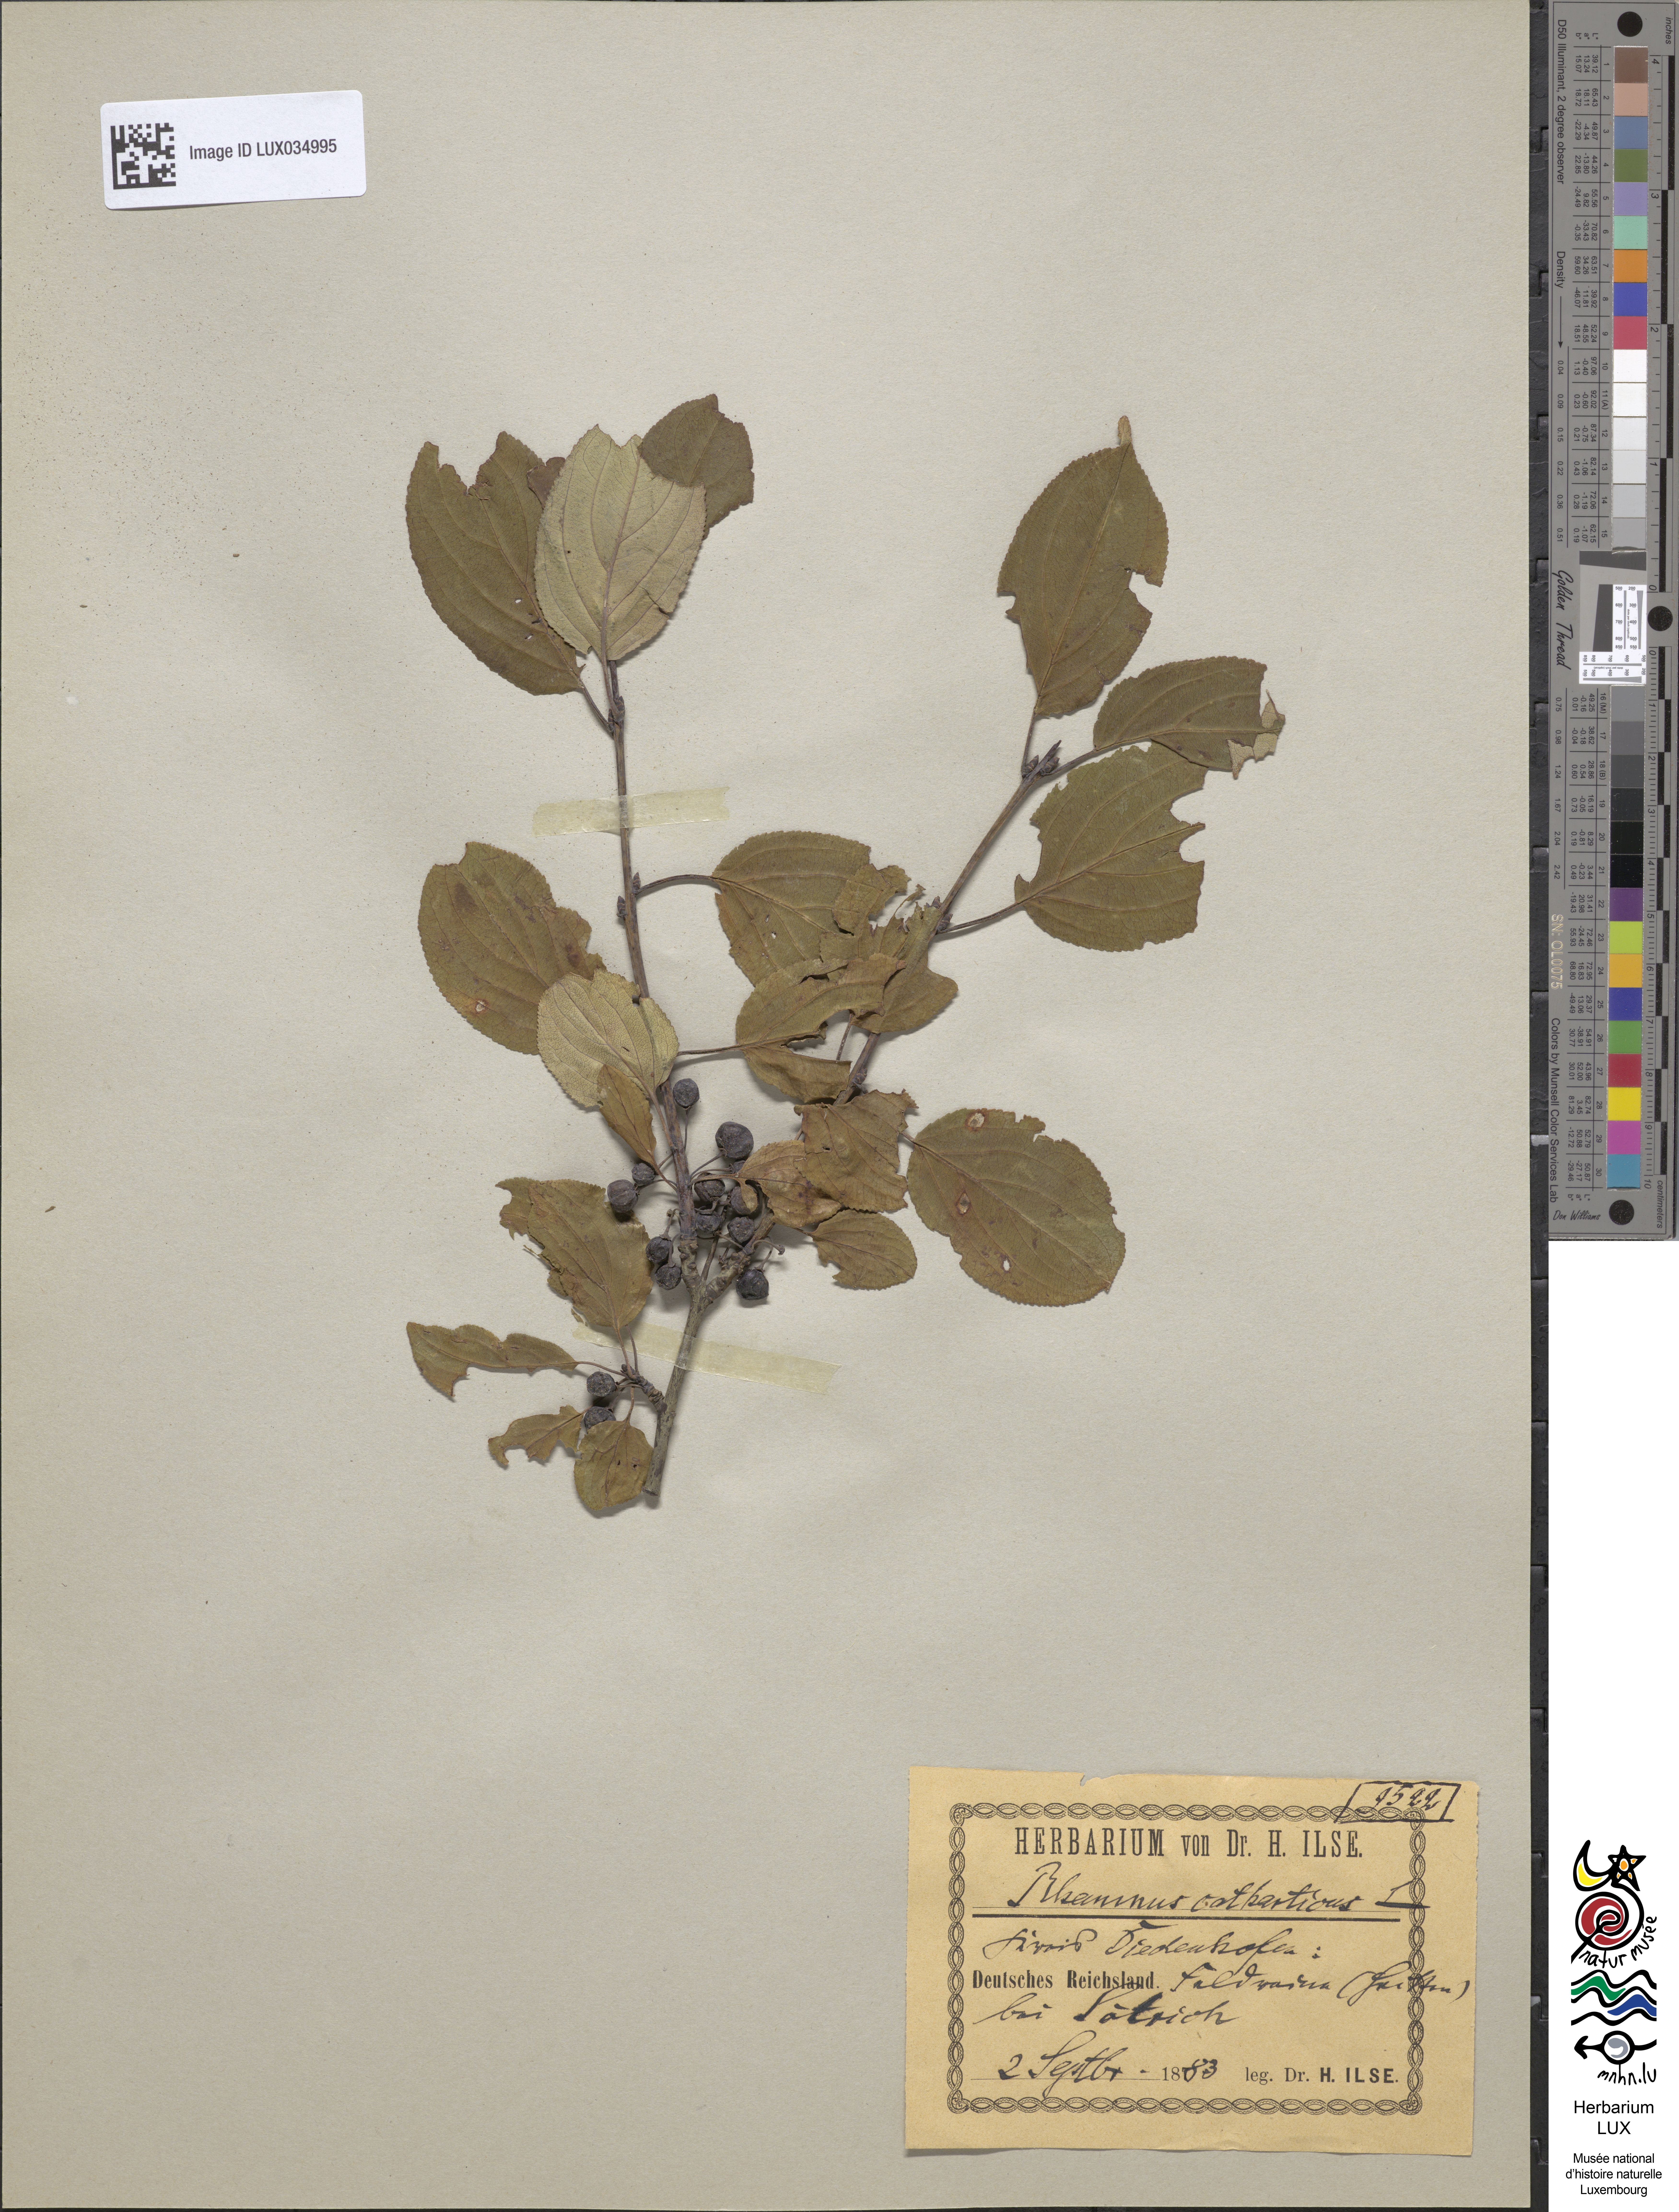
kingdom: Plantae
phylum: Tracheophyta
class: Magnoliopsida
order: Rosales
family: Rhamnaceae
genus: Rhamnus
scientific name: Rhamnus cathartica
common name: Common buckthorn
